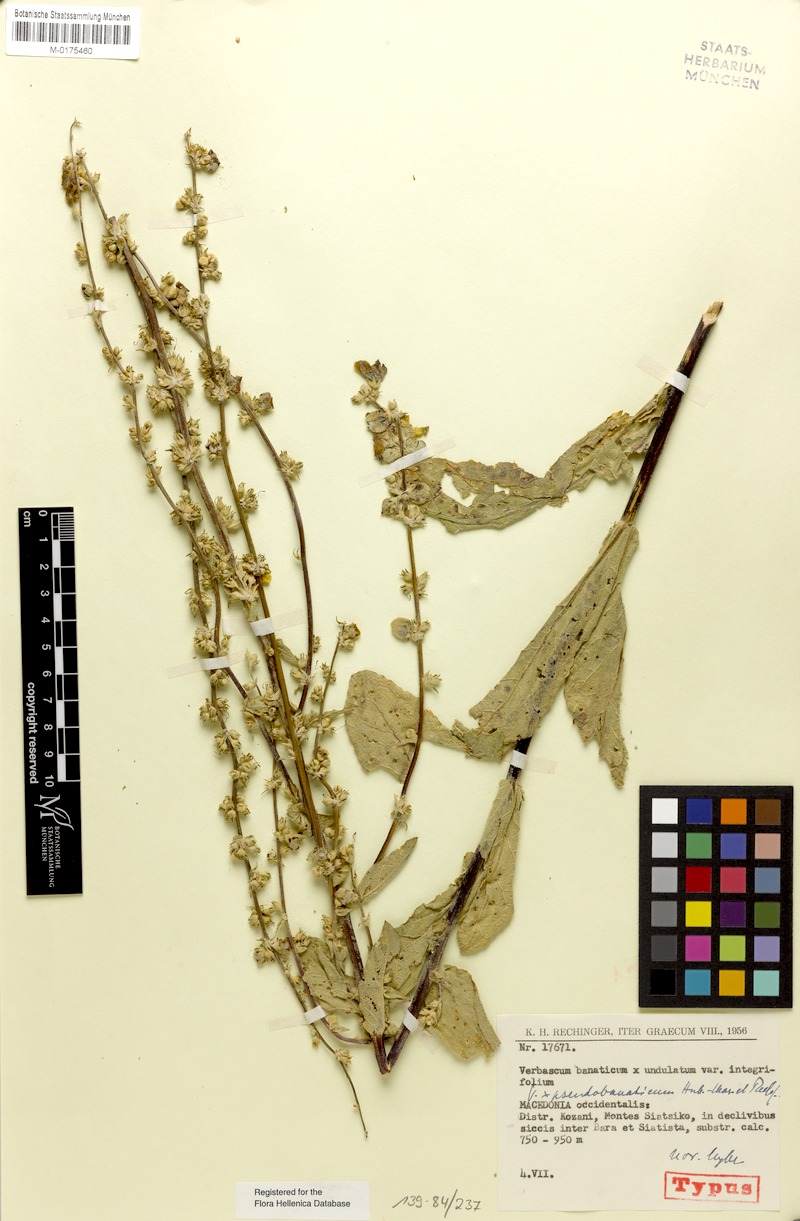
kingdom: Plantae
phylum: Tracheophyta
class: Magnoliopsida
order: Lamiales
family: Scrophulariaceae
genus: Verbascum
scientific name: Verbascum pseudobanaticum
